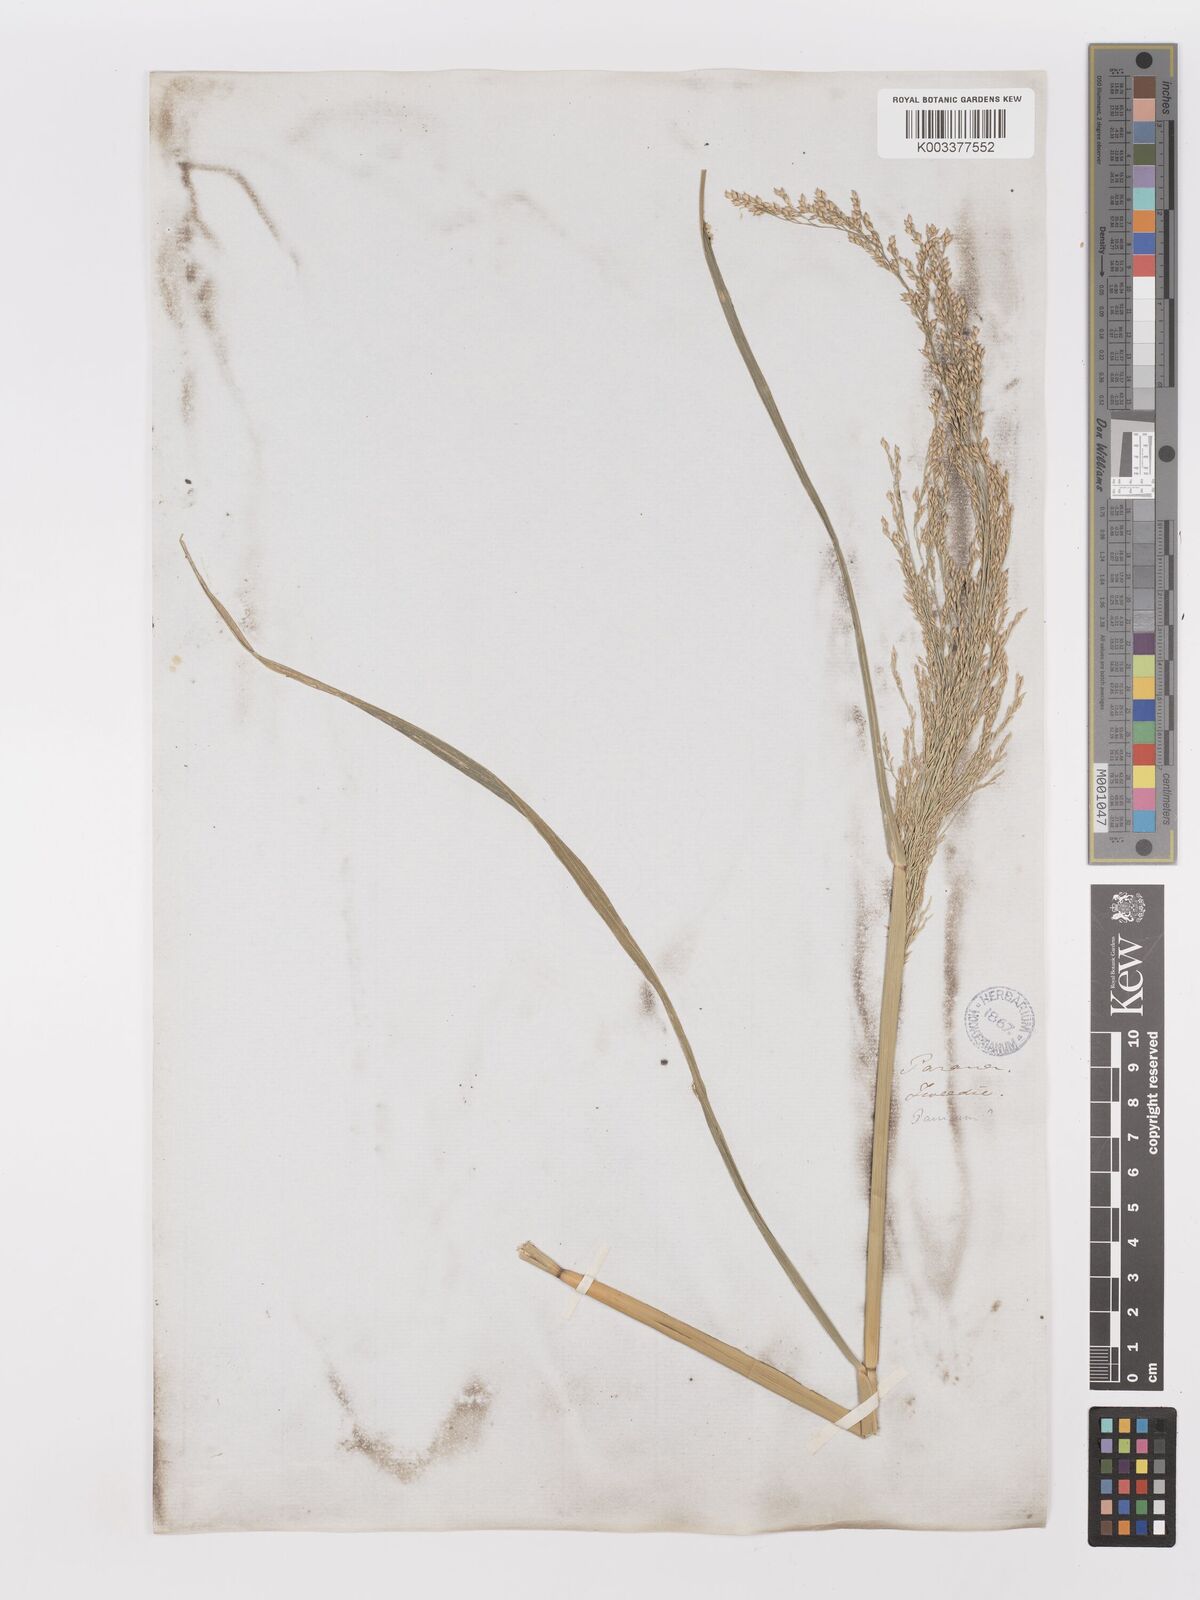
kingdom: Plantae
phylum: Tracheophyta
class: Liliopsida
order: Poales
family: Poaceae
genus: Panicum
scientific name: Panicum tricholaenoides
